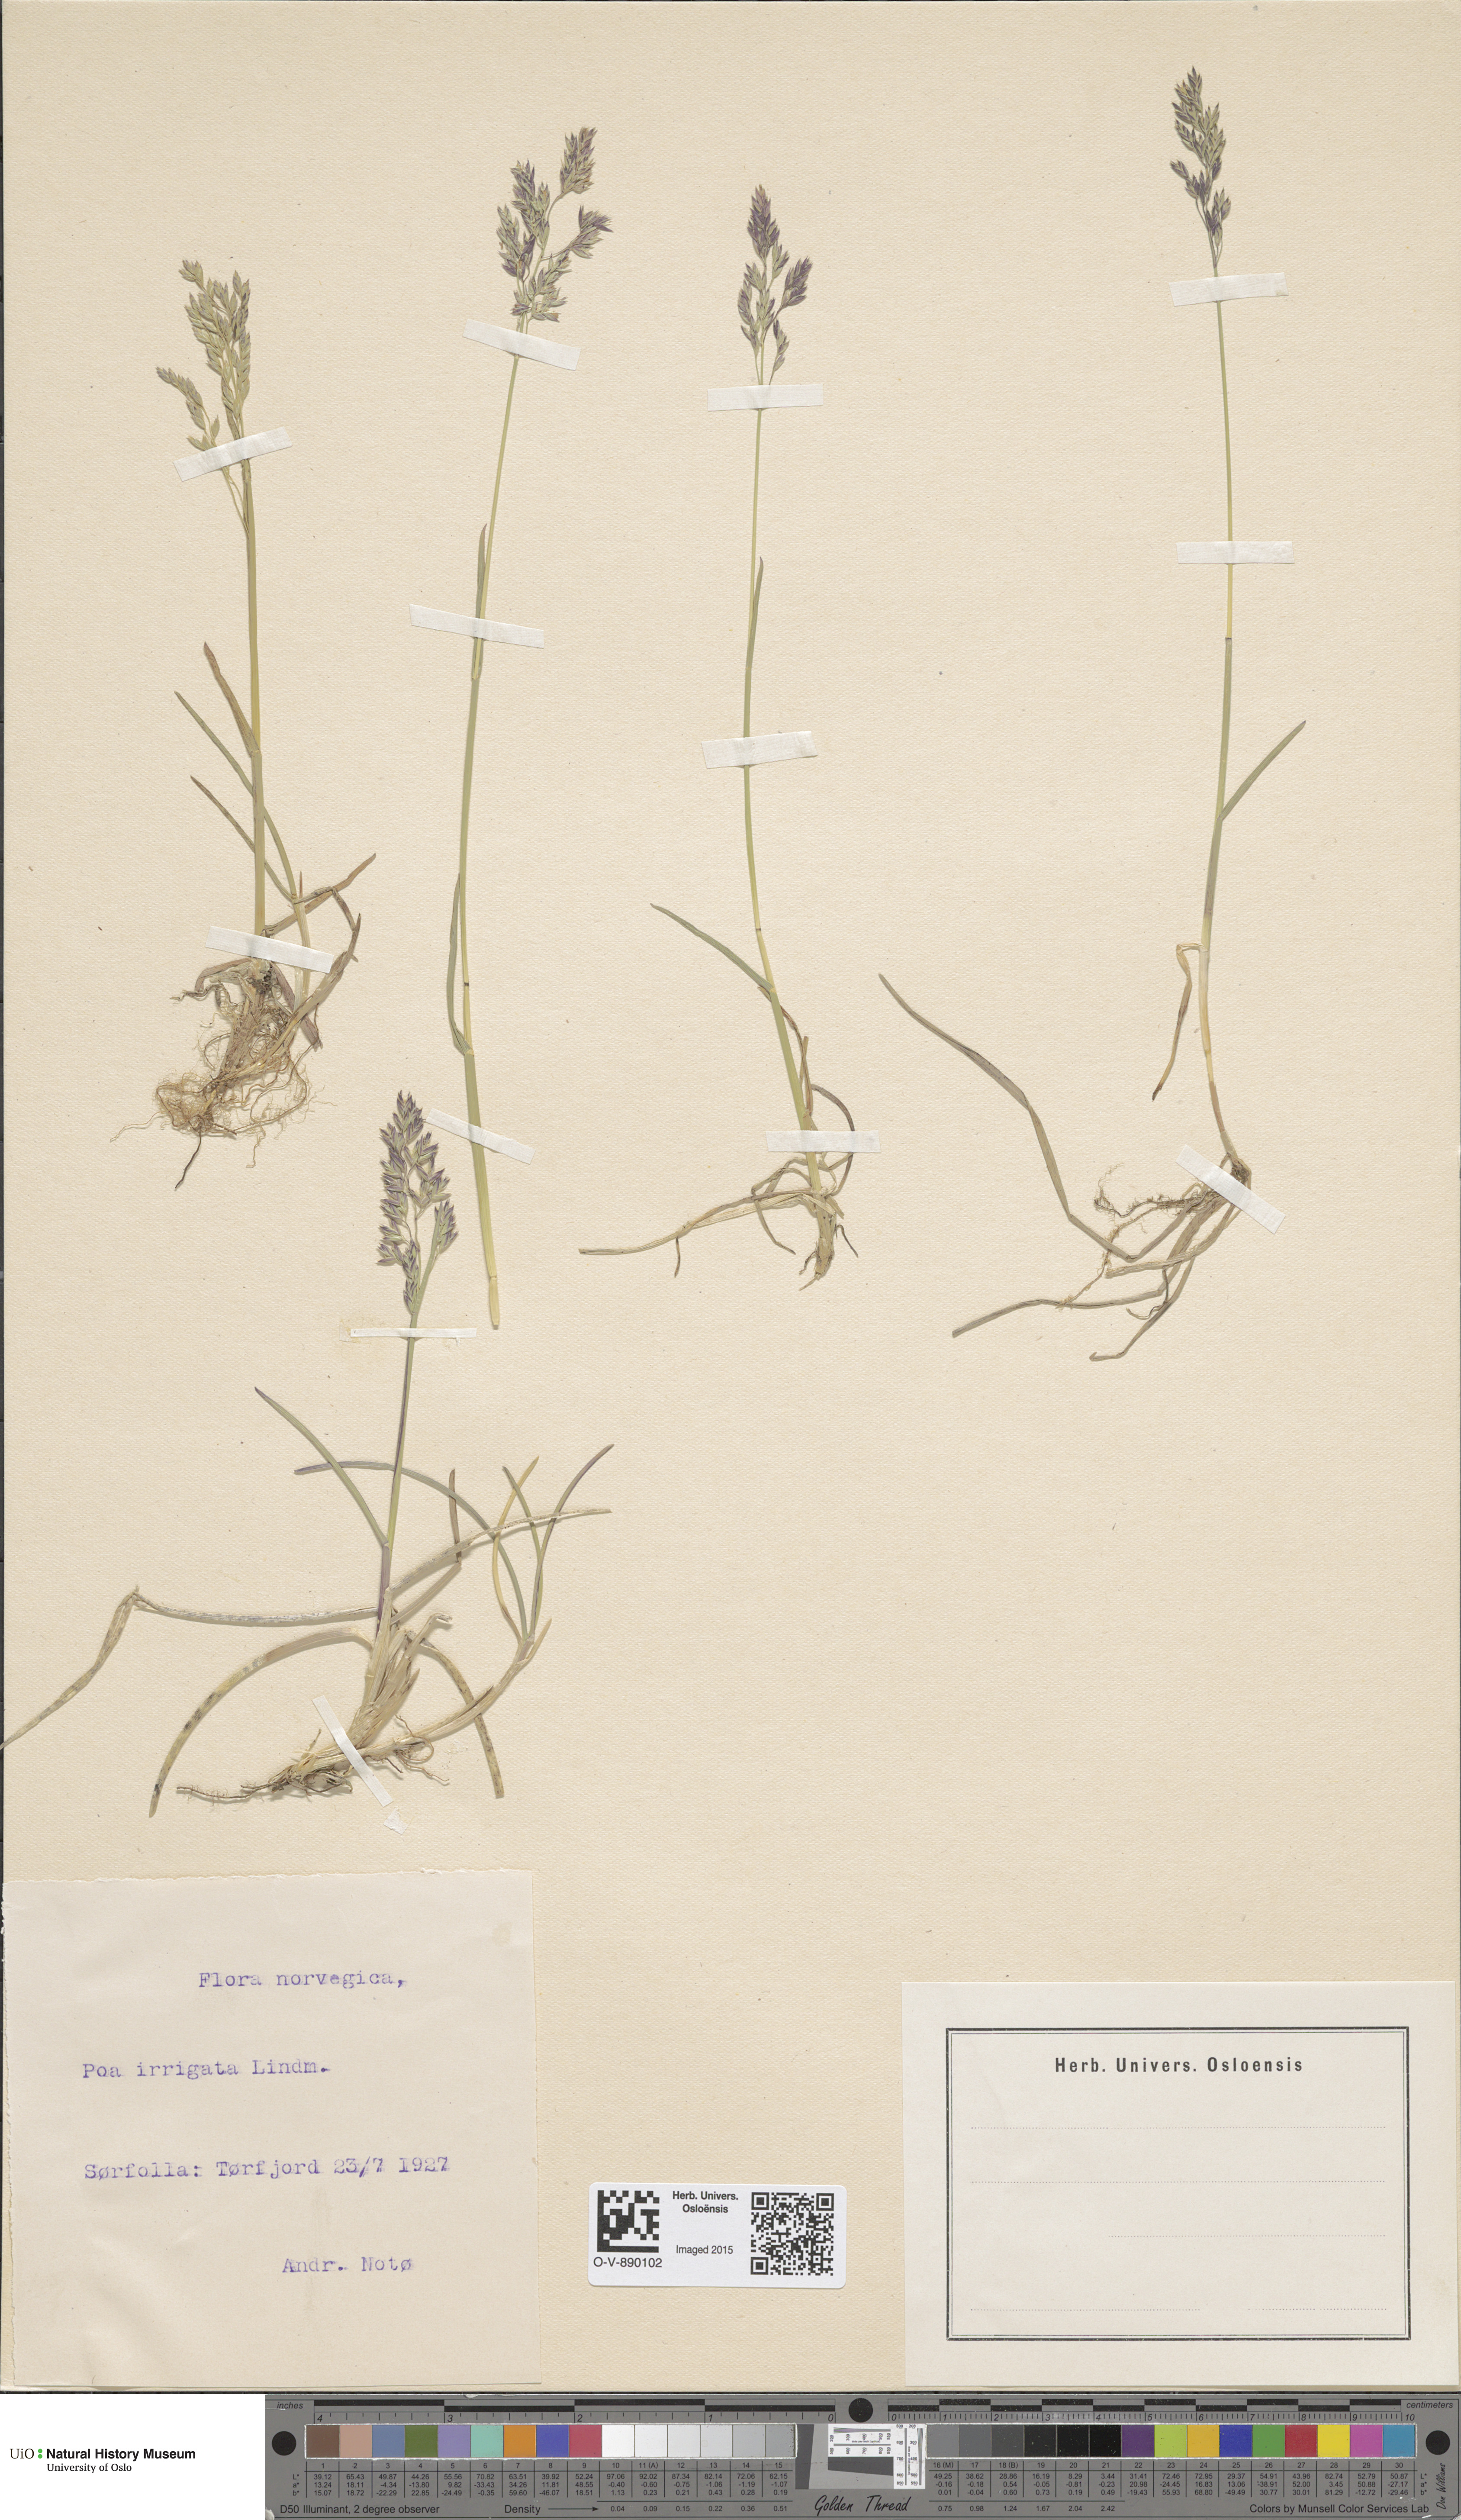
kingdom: Plantae
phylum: Tracheophyta
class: Liliopsida
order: Poales
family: Poaceae
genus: Poa
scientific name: Poa humilis
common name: Spreading meadow-grass
